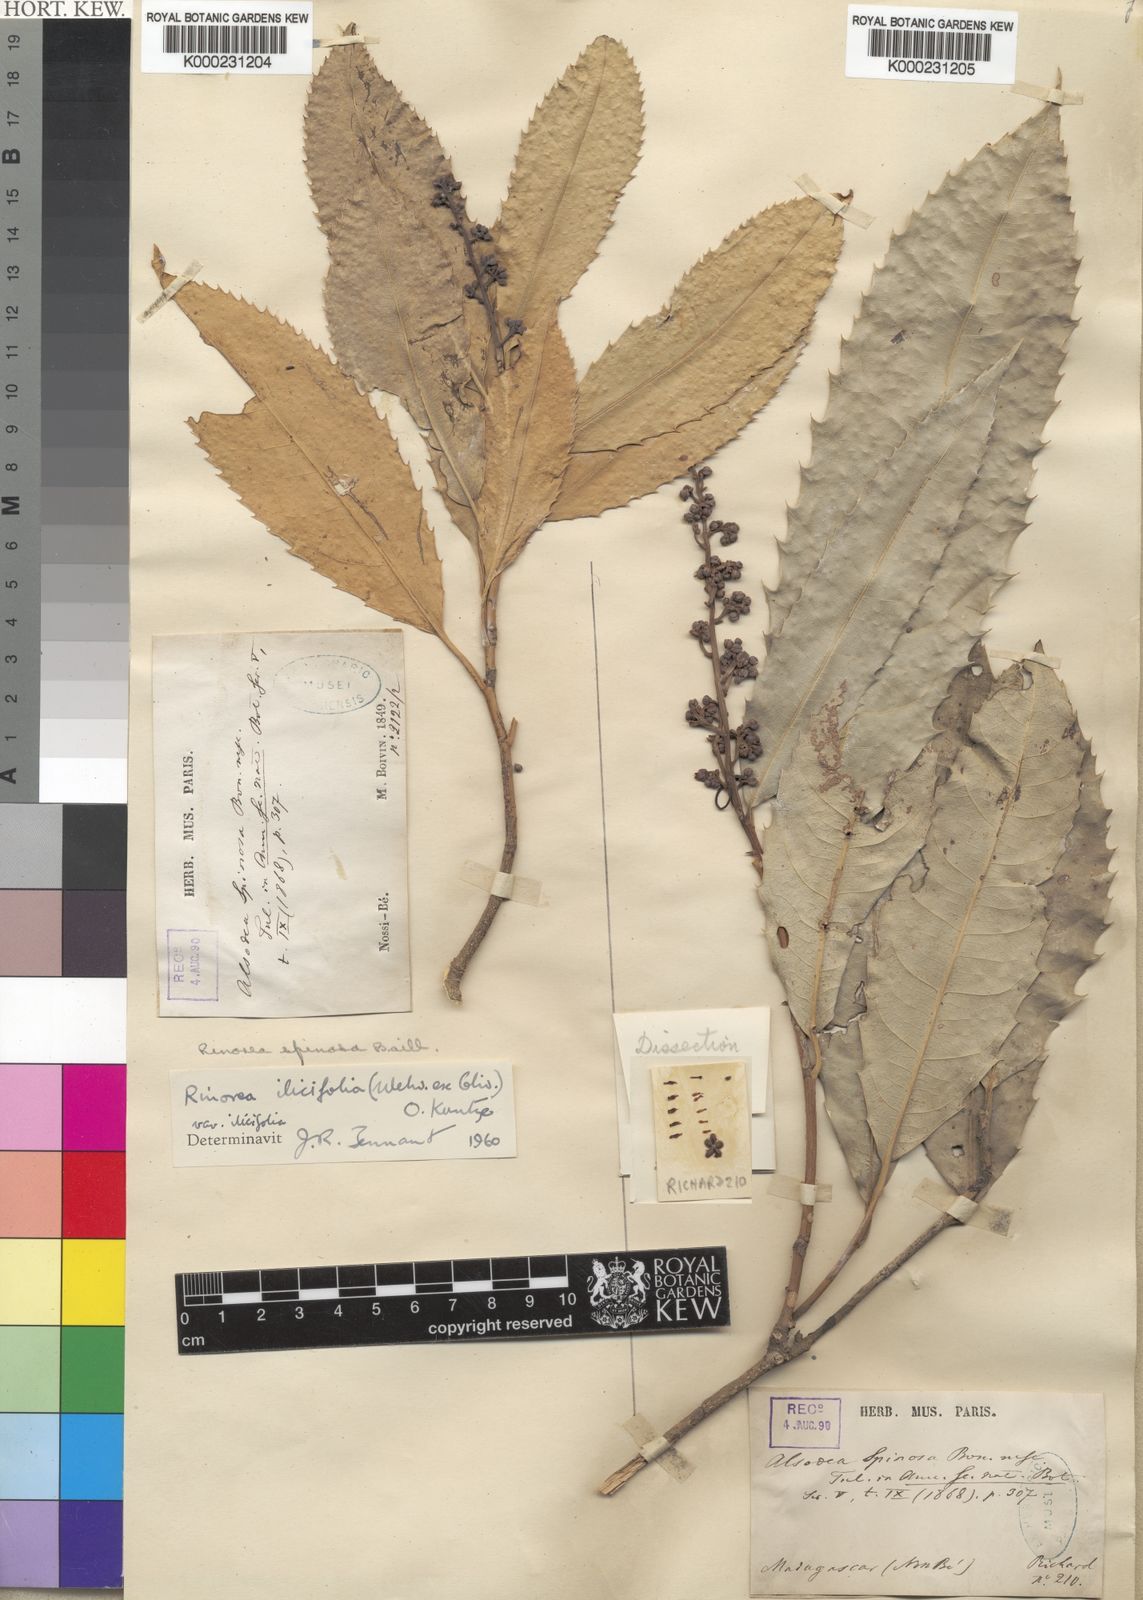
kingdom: Plantae
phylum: Tracheophyta
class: Magnoliopsida
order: Malpighiales
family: Violaceae
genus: Rinorea
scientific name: Rinorea ilicifolia
